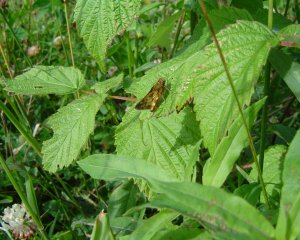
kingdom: Animalia
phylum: Arthropoda
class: Insecta
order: Lepidoptera
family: Hesperiidae
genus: Polites
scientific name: Polites coras
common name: Peck's Skipper
